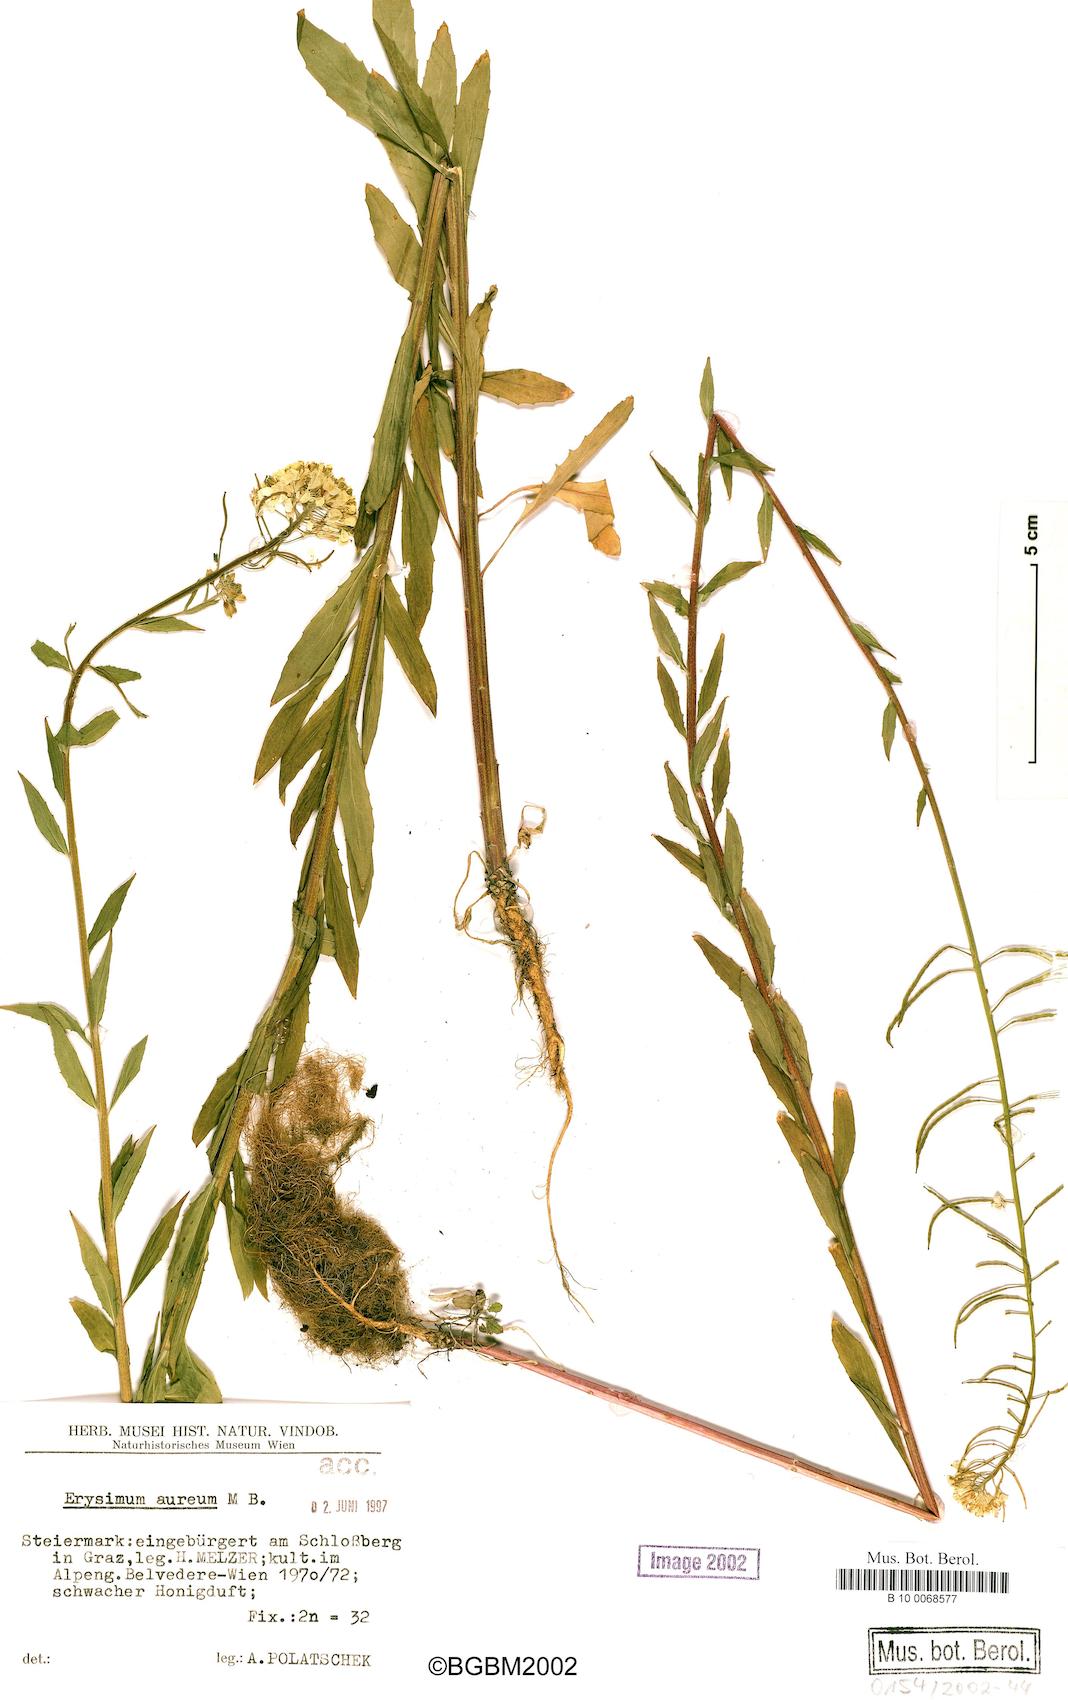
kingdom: Plantae
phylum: Tracheophyta
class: Magnoliopsida
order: Brassicales
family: Brassicaceae
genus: Erysimum
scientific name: Erysimum aureum
